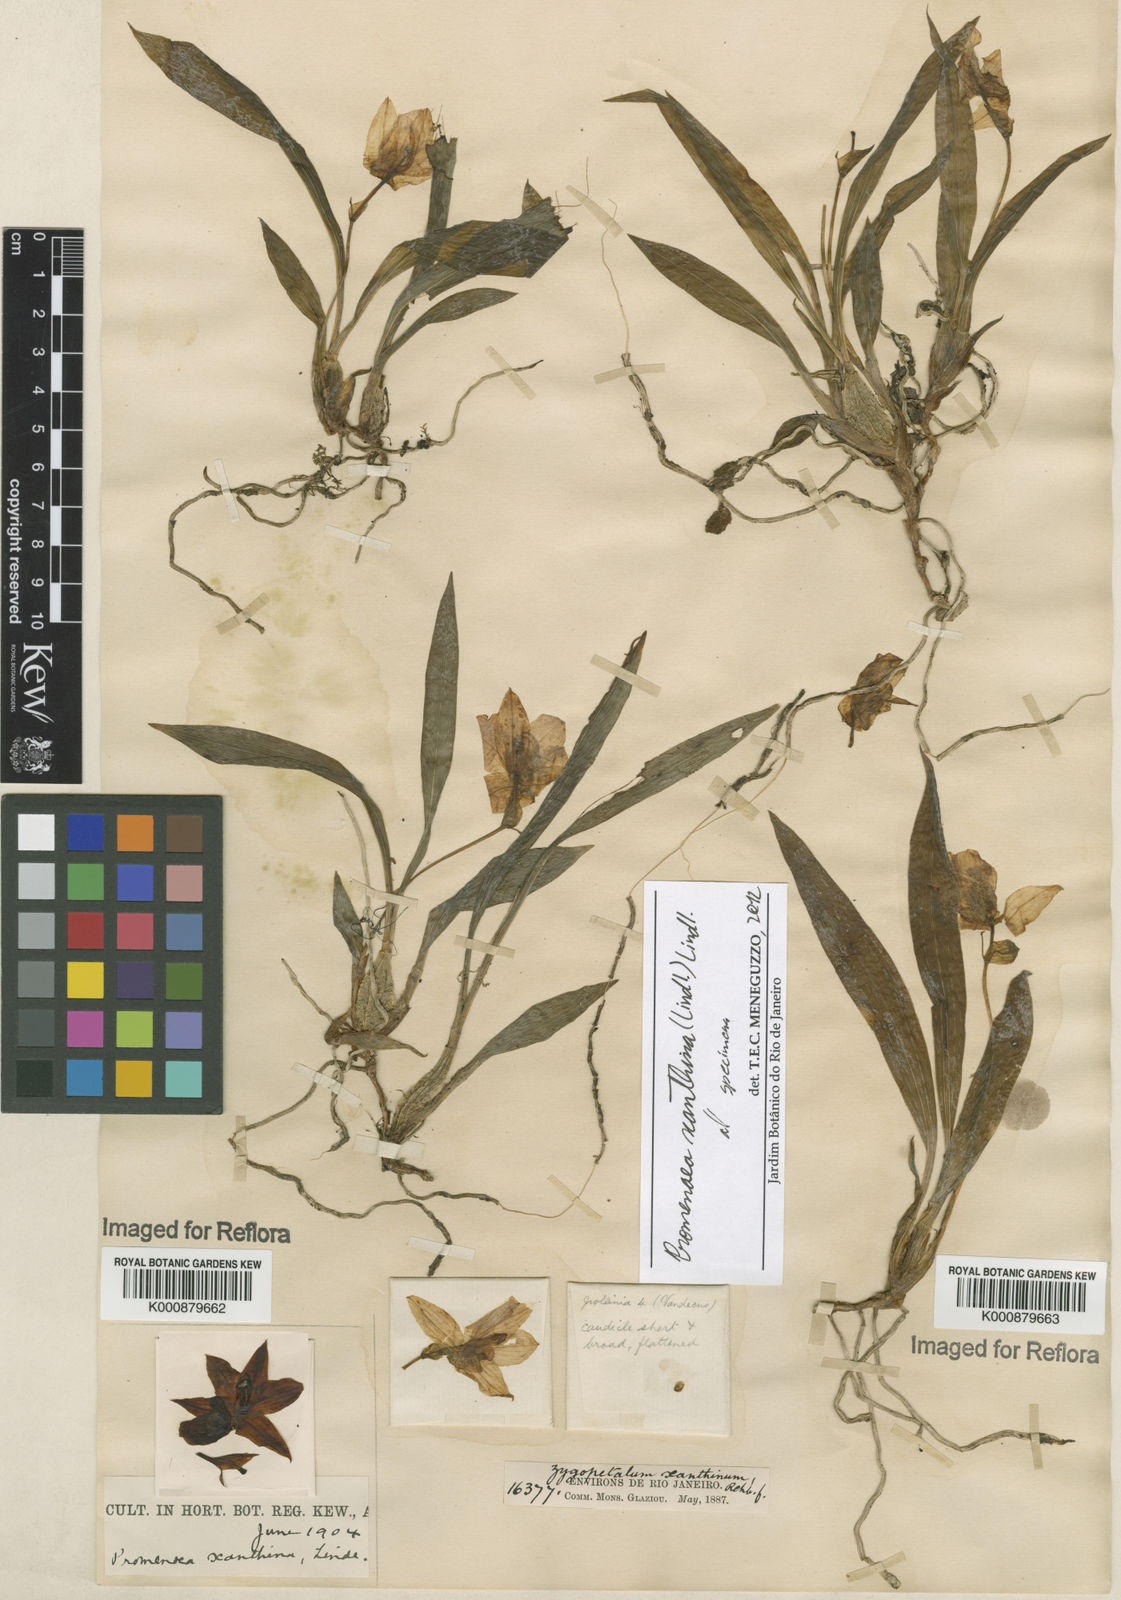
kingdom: Plantae
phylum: Tracheophyta
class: Liliopsida
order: Asparagales
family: Orchidaceae
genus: Promenaea
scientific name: Promenaea xanthina
